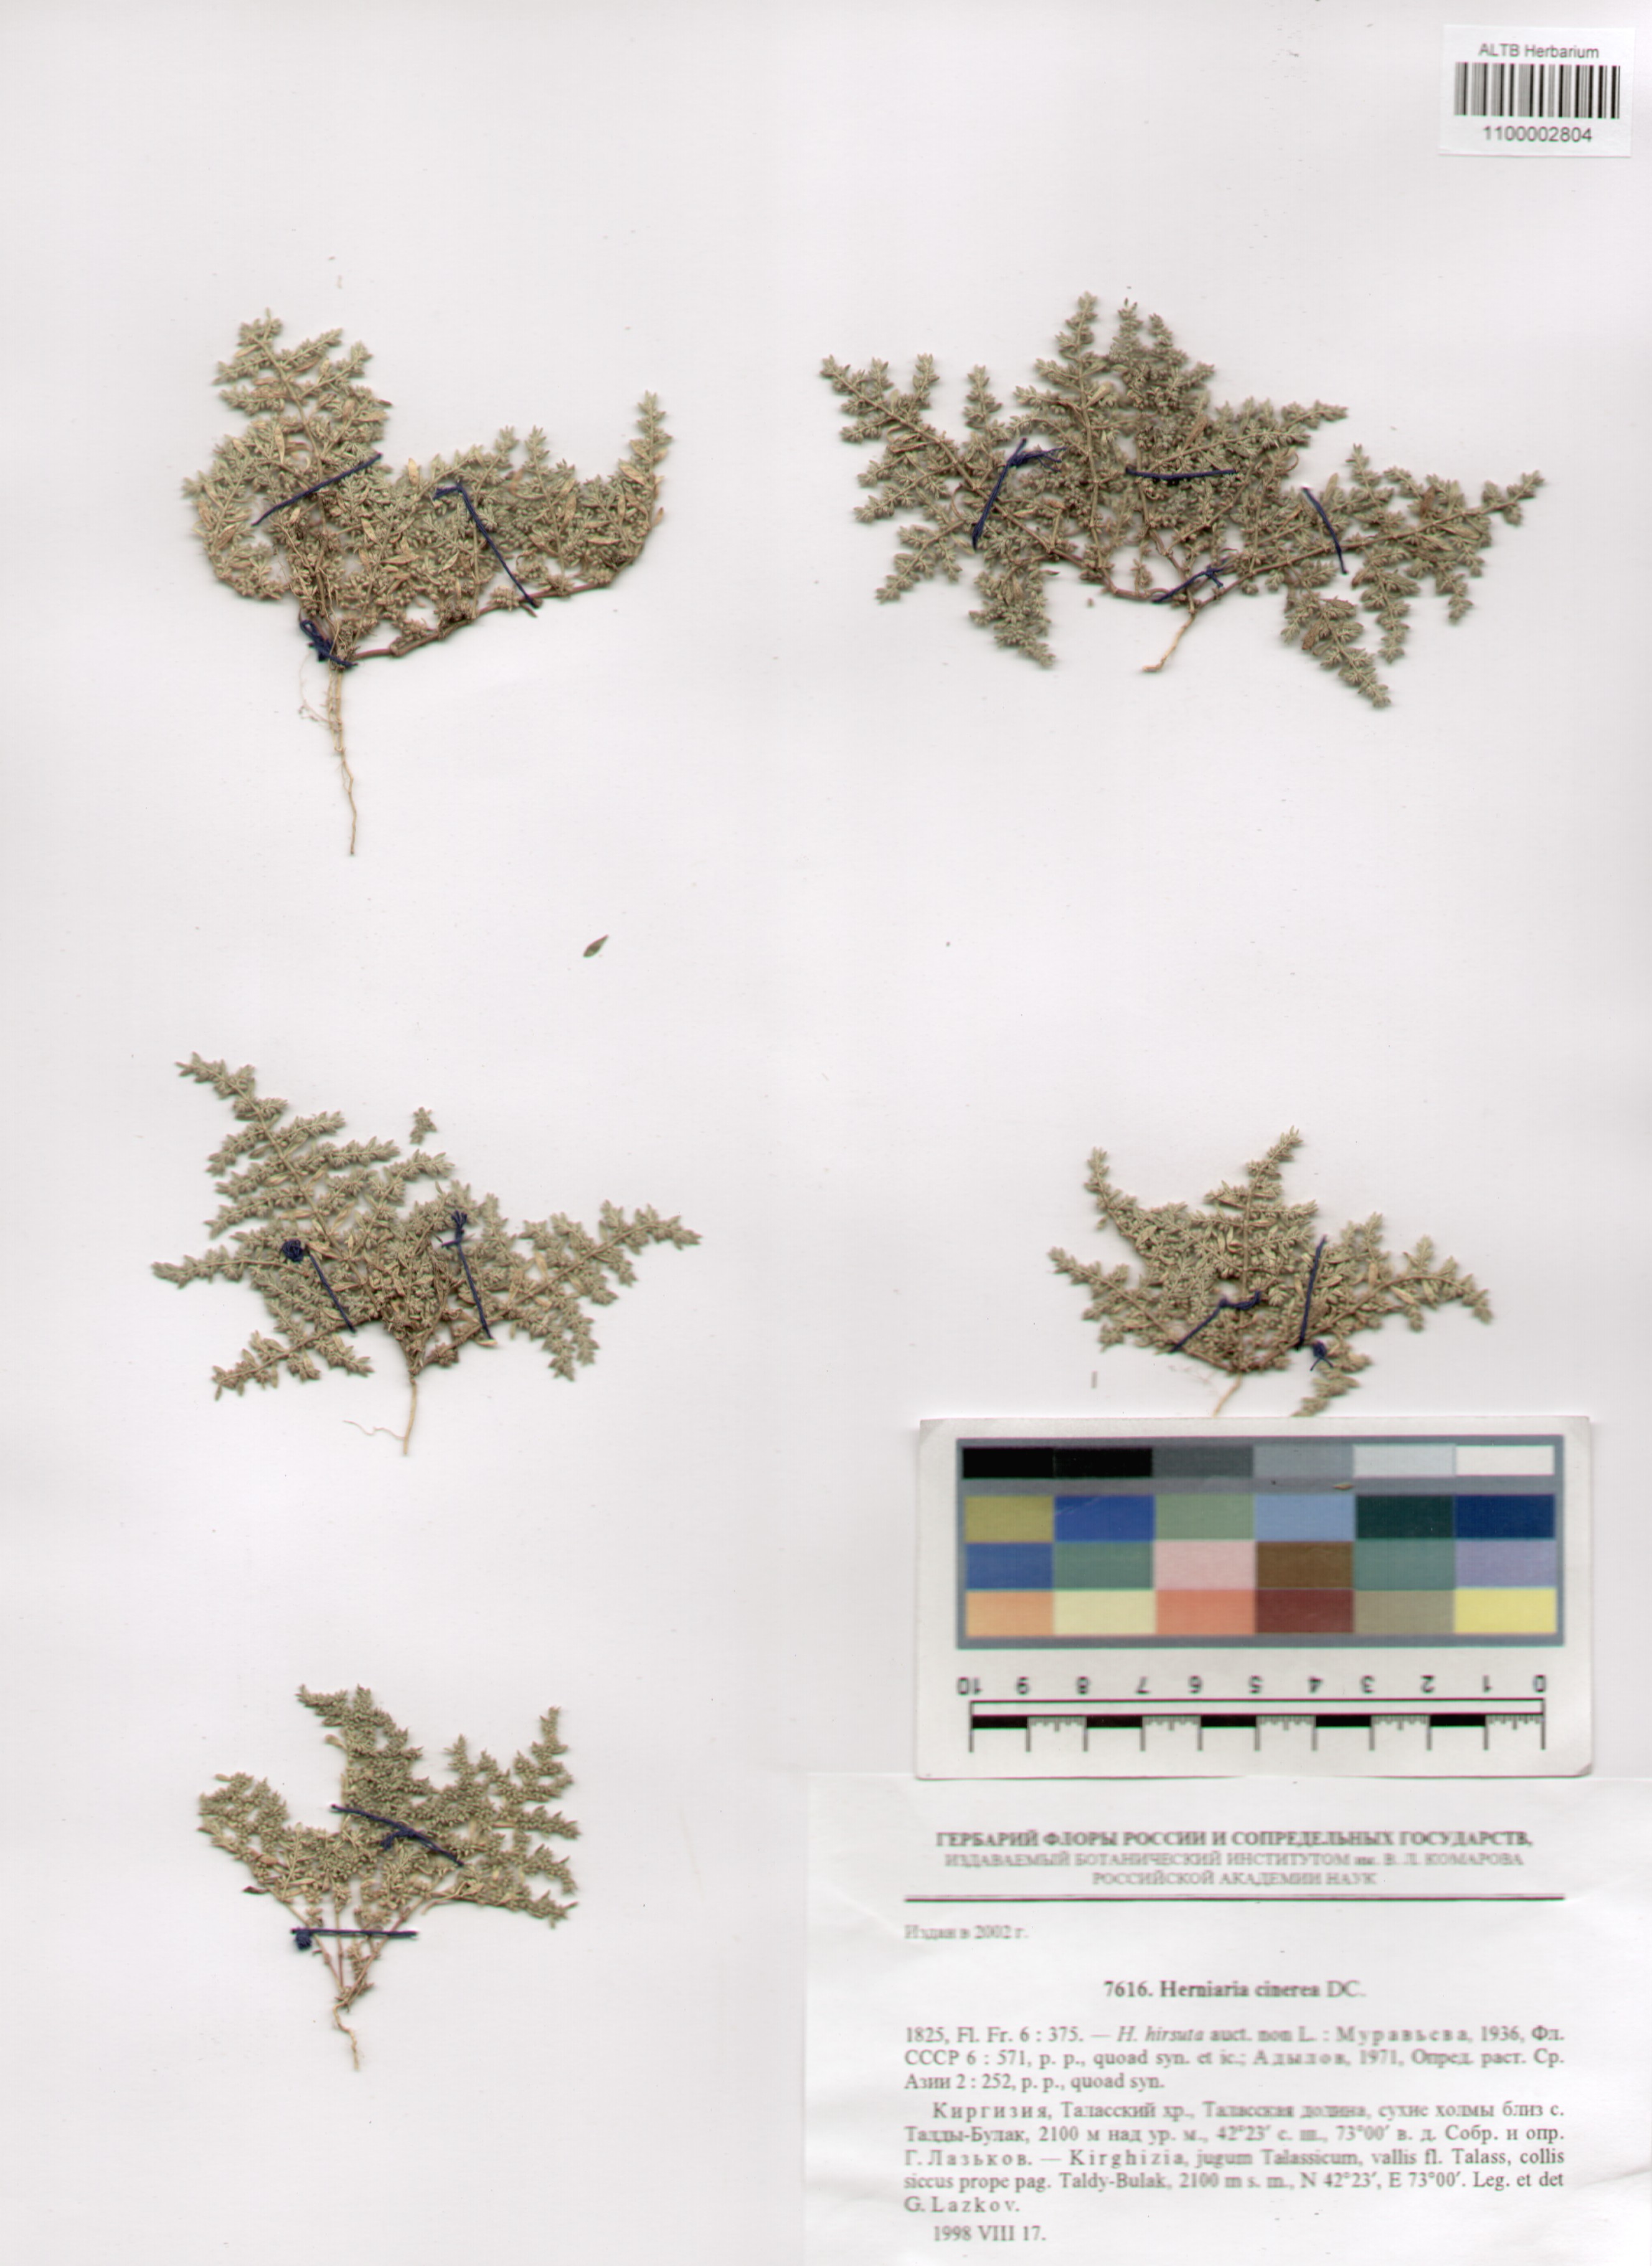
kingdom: Plantae
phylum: Tracheophyta
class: Magnoliopsida
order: Caryophyllales
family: Caryophyllaceae
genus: Herniaria
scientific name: Herniaria cinerea
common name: Hairy rupturewort
